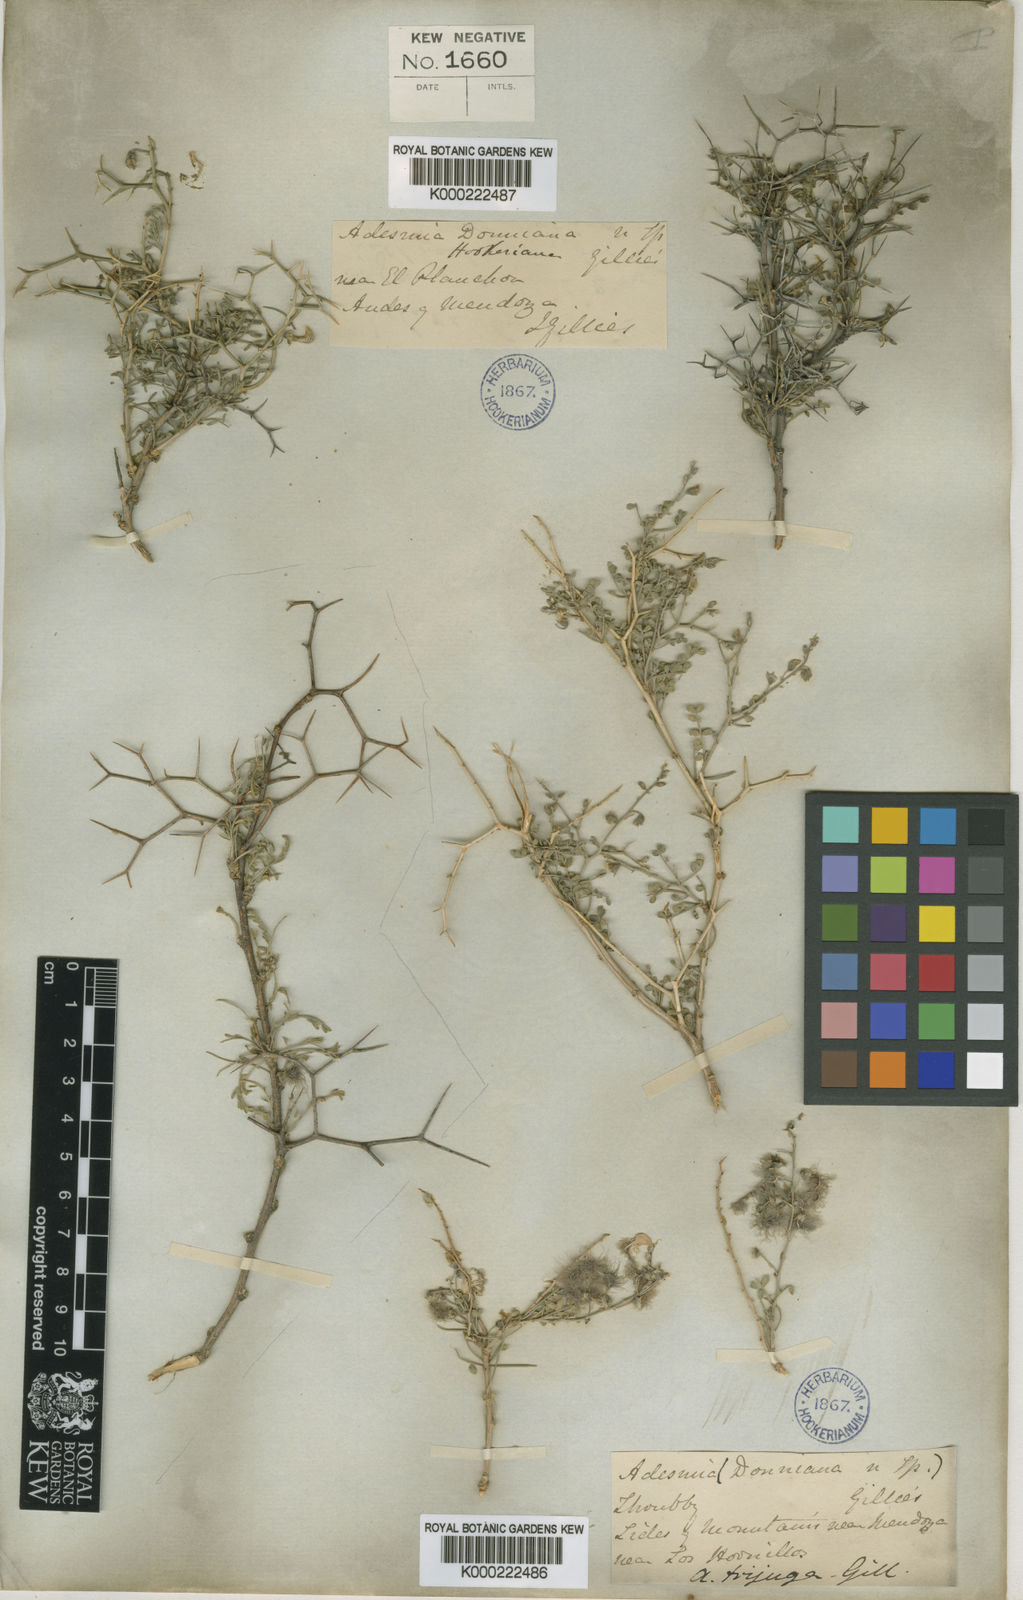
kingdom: Plantae
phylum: Tracheophyta
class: Magnoliopsida
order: Fabales
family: Fabaceae
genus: Adesmia
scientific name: Adesmia trijuga
